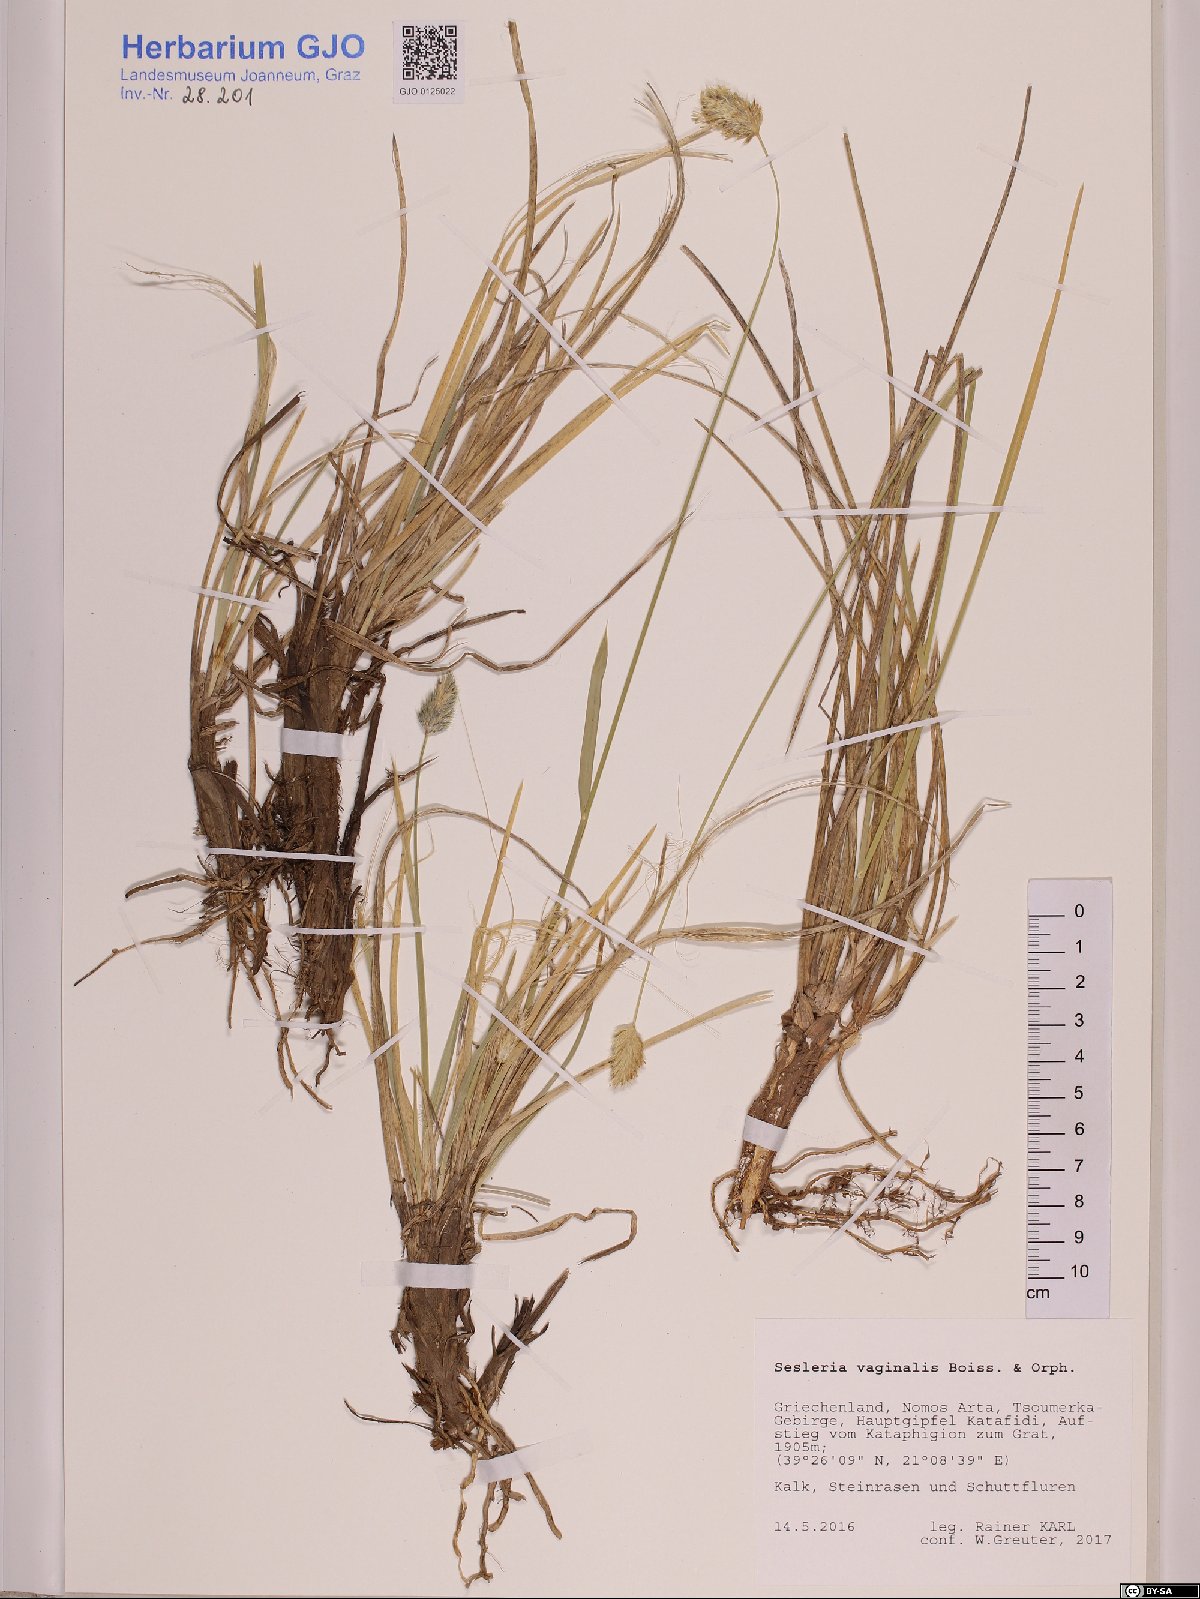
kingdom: Plantae
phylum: Tracheophyta
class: Liliopsida
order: Poales
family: Poaceae
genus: Sesleria
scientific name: Sesleria vaginalis
